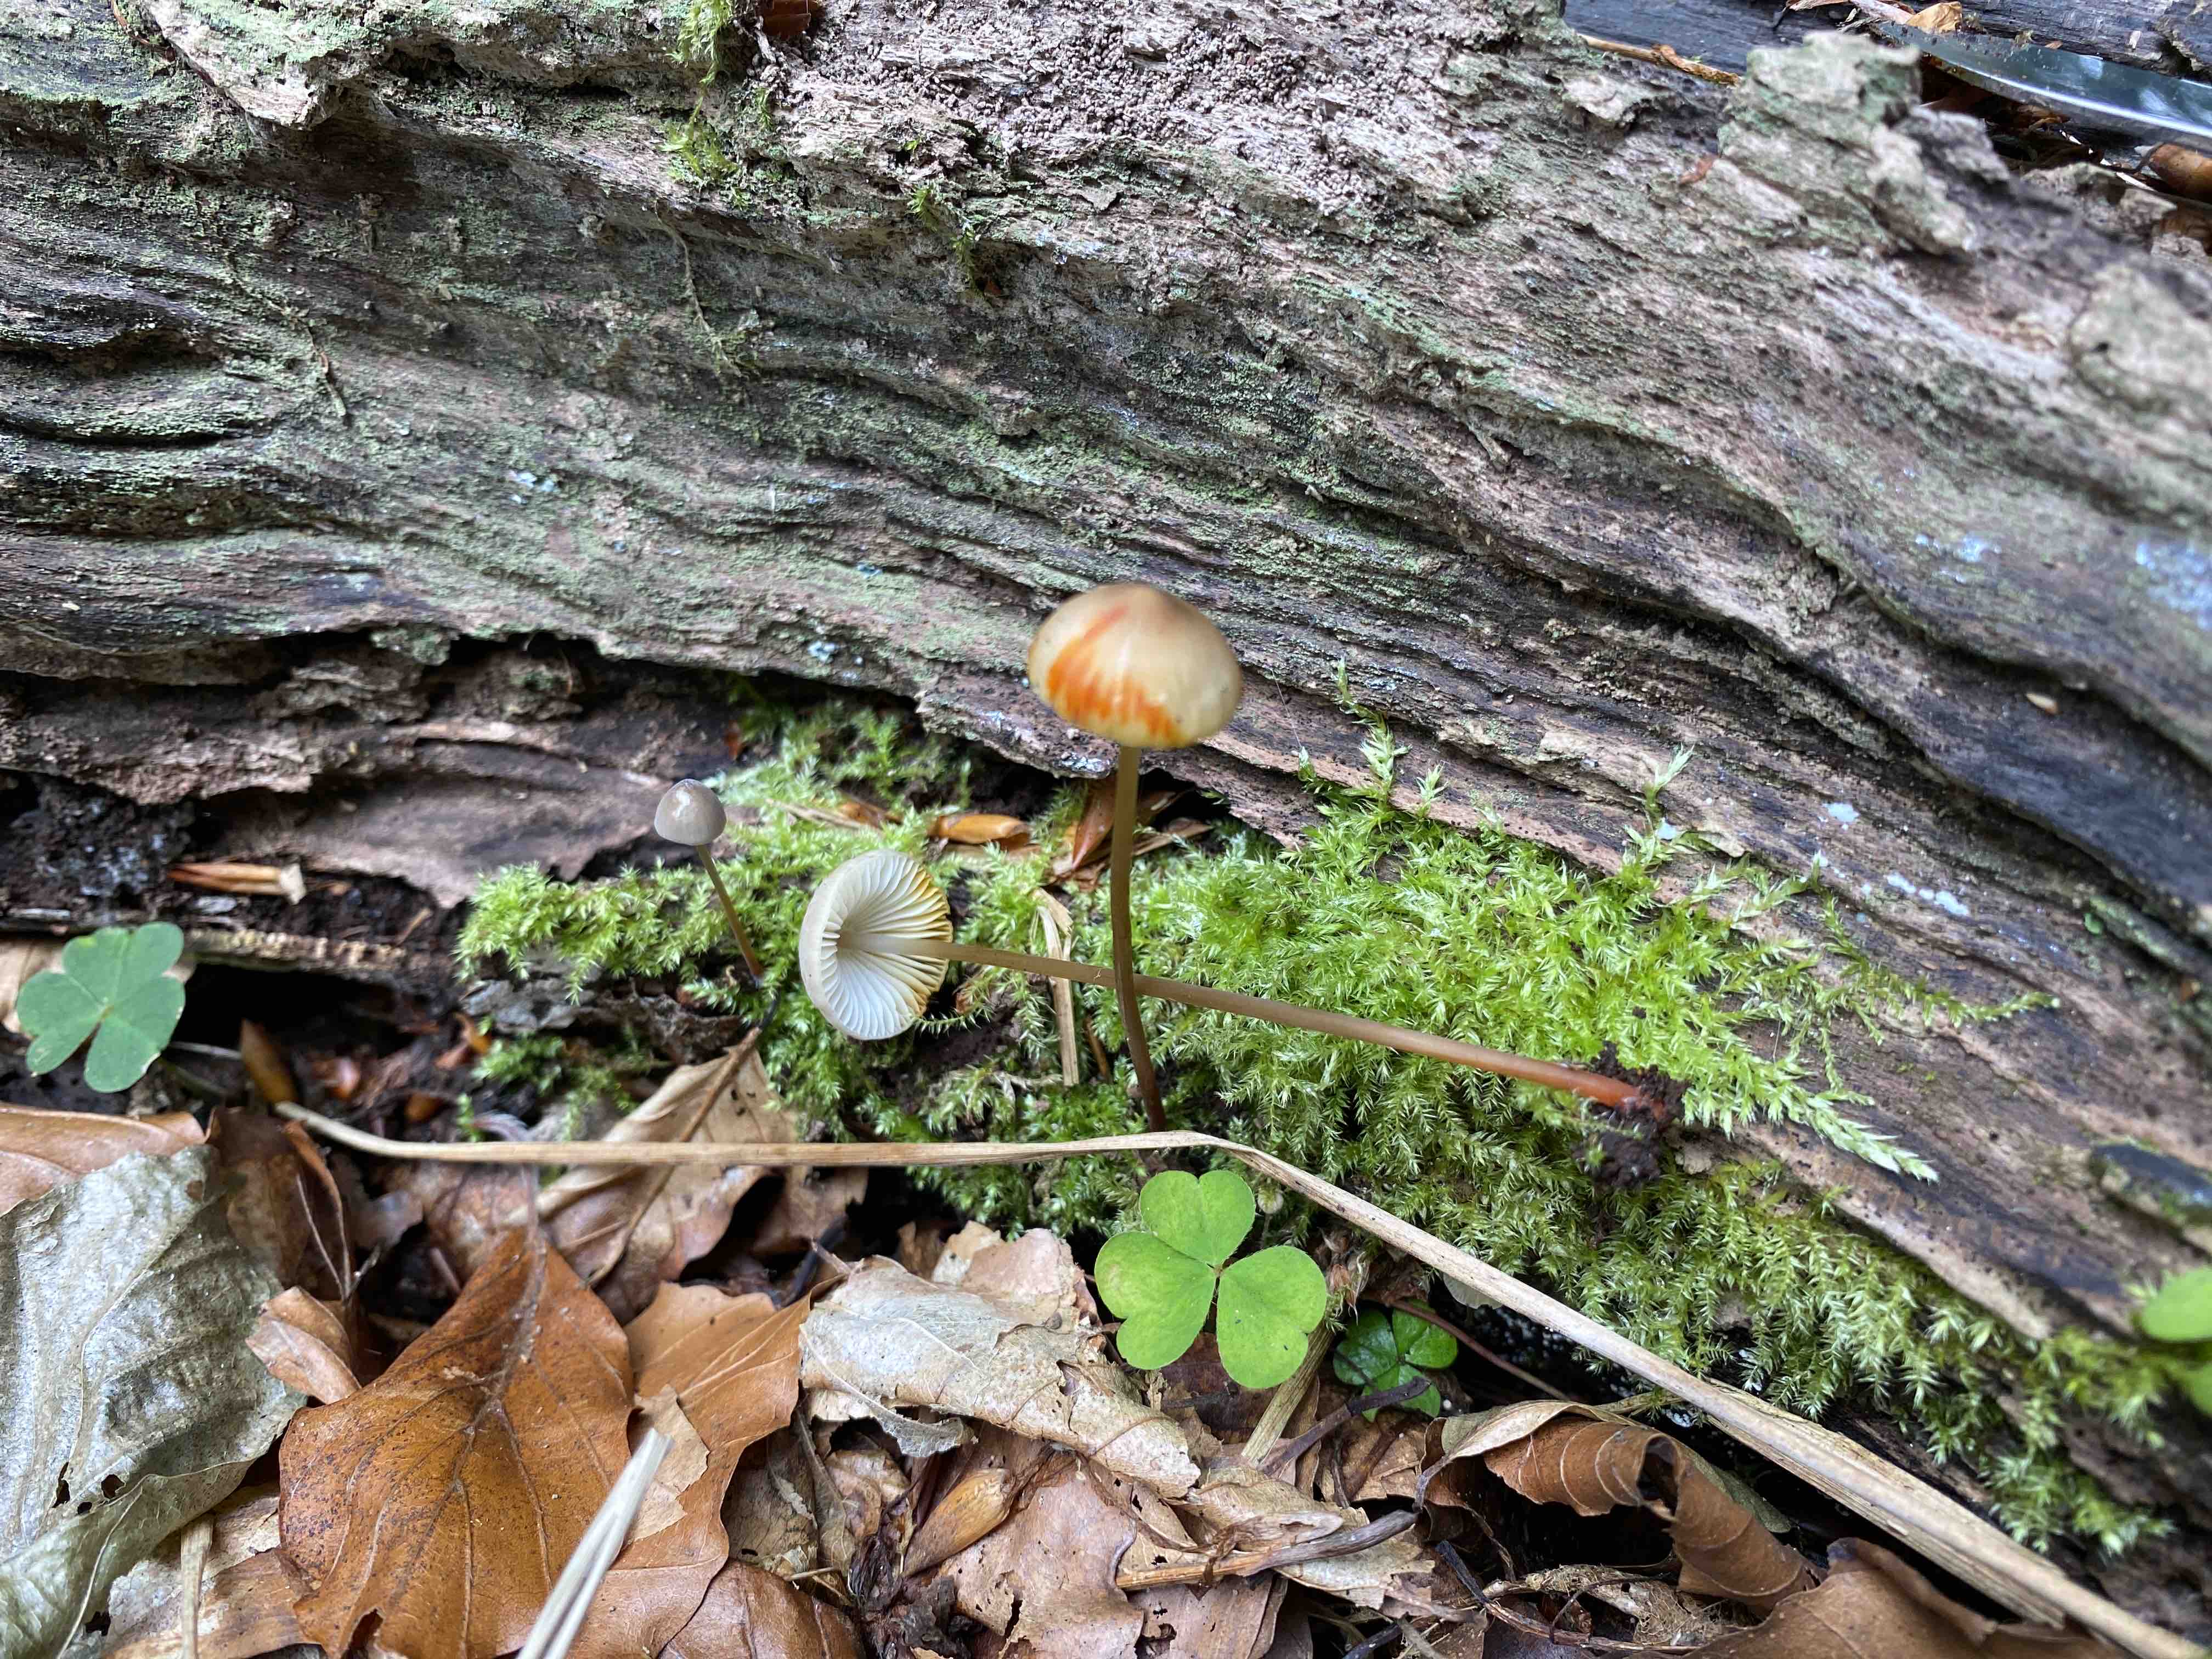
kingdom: Fungi
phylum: Basidiomycota
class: Agaricomycetes
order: Agaricales
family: Mycenaceae
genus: Mycena
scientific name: Mycena crocata
